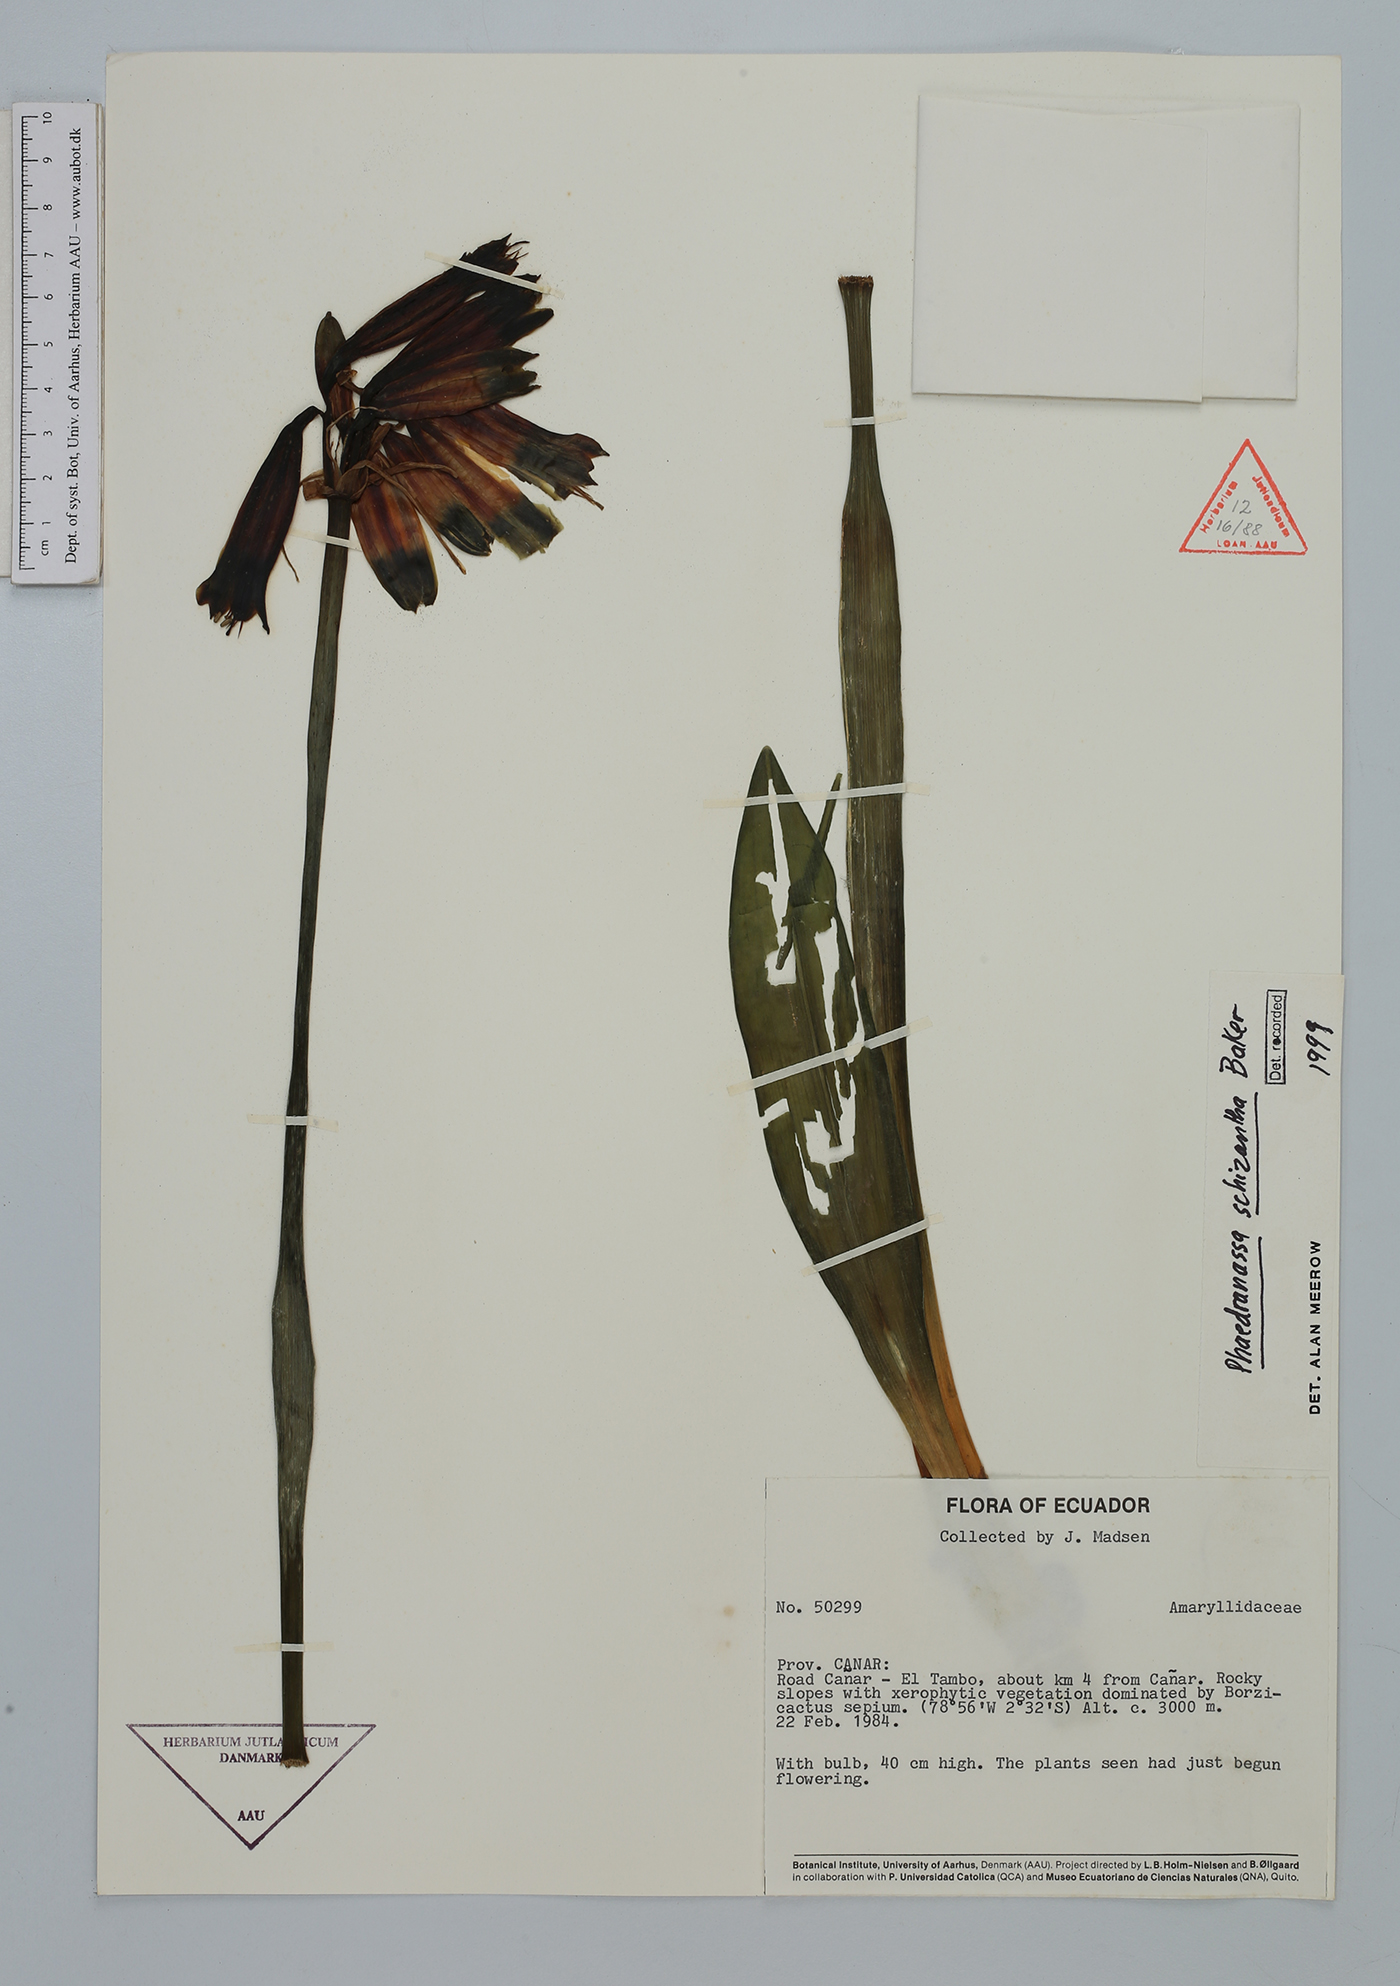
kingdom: Plantae
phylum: Tracheophyta
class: Liliopsida
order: Asparagales
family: Amaryllidaceae
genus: Phaedranassa
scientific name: Phaedranassa schizantha
